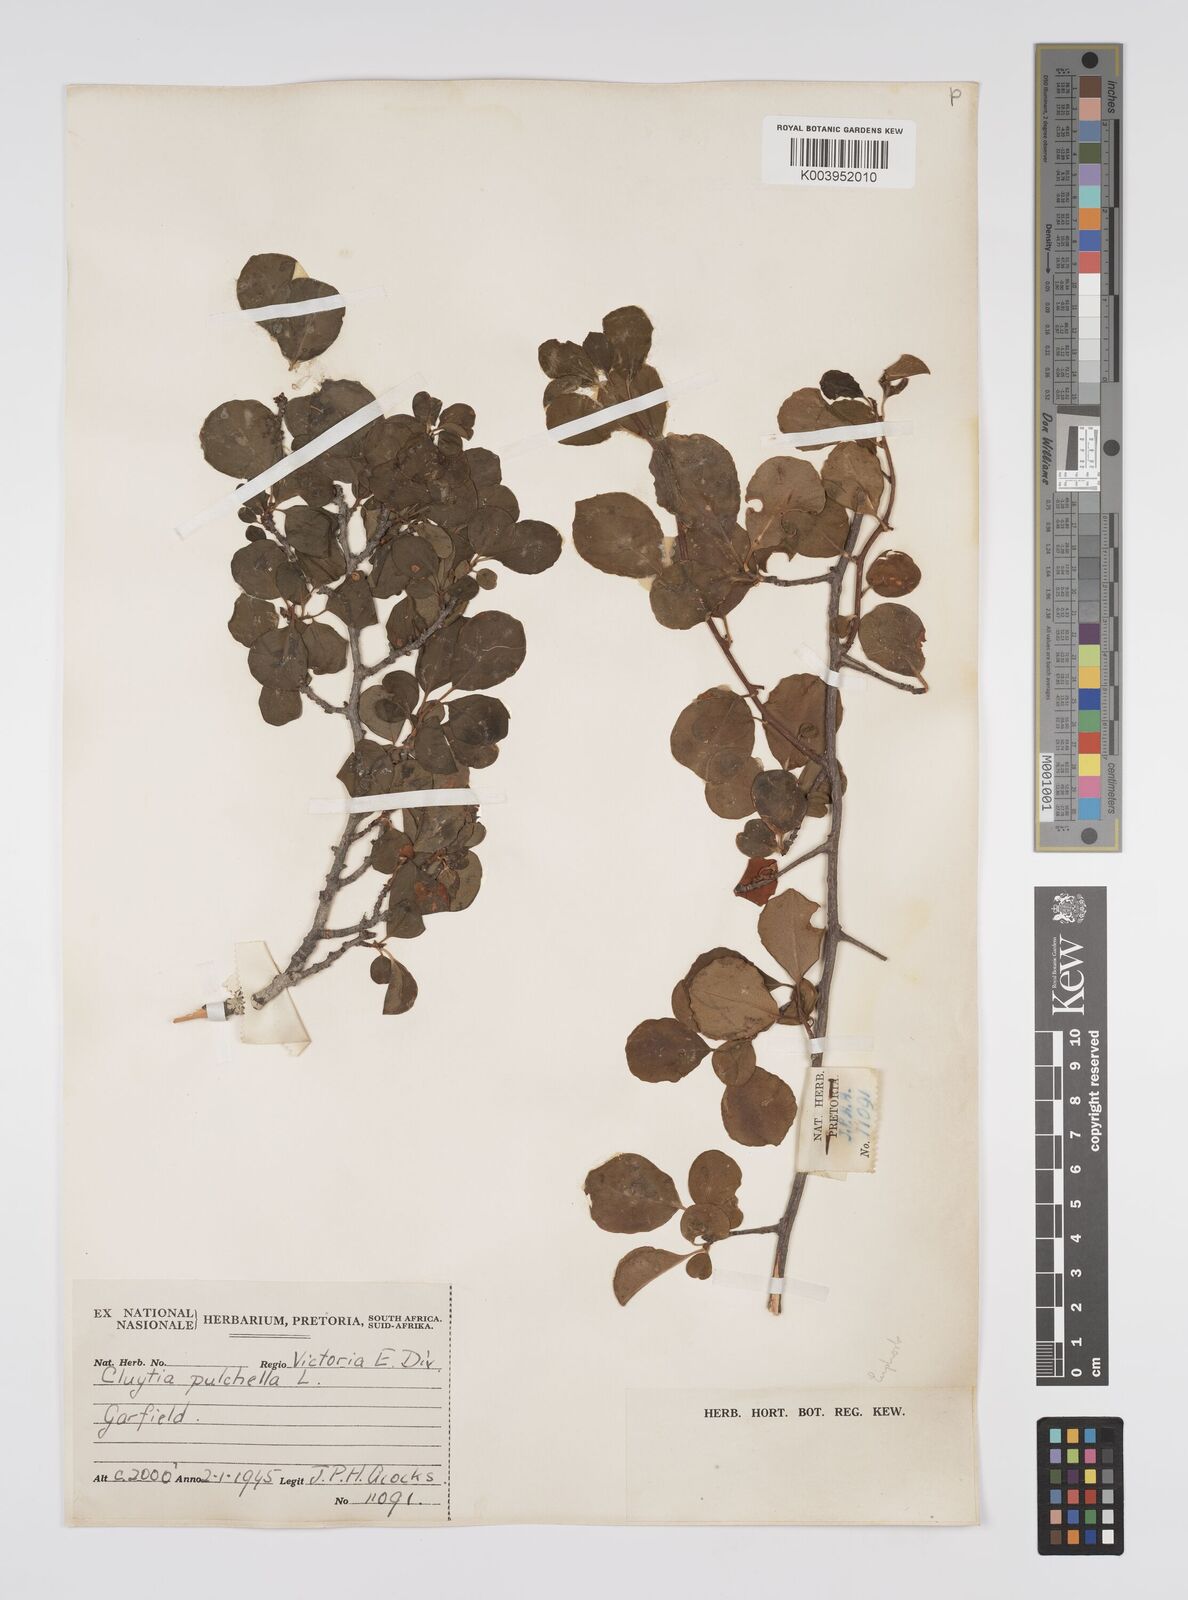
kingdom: Plantae
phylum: Tracheophyta
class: Magnoliopsida
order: Malpighiales
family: Peraceae
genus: Clutia
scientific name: Clutia pulchella
